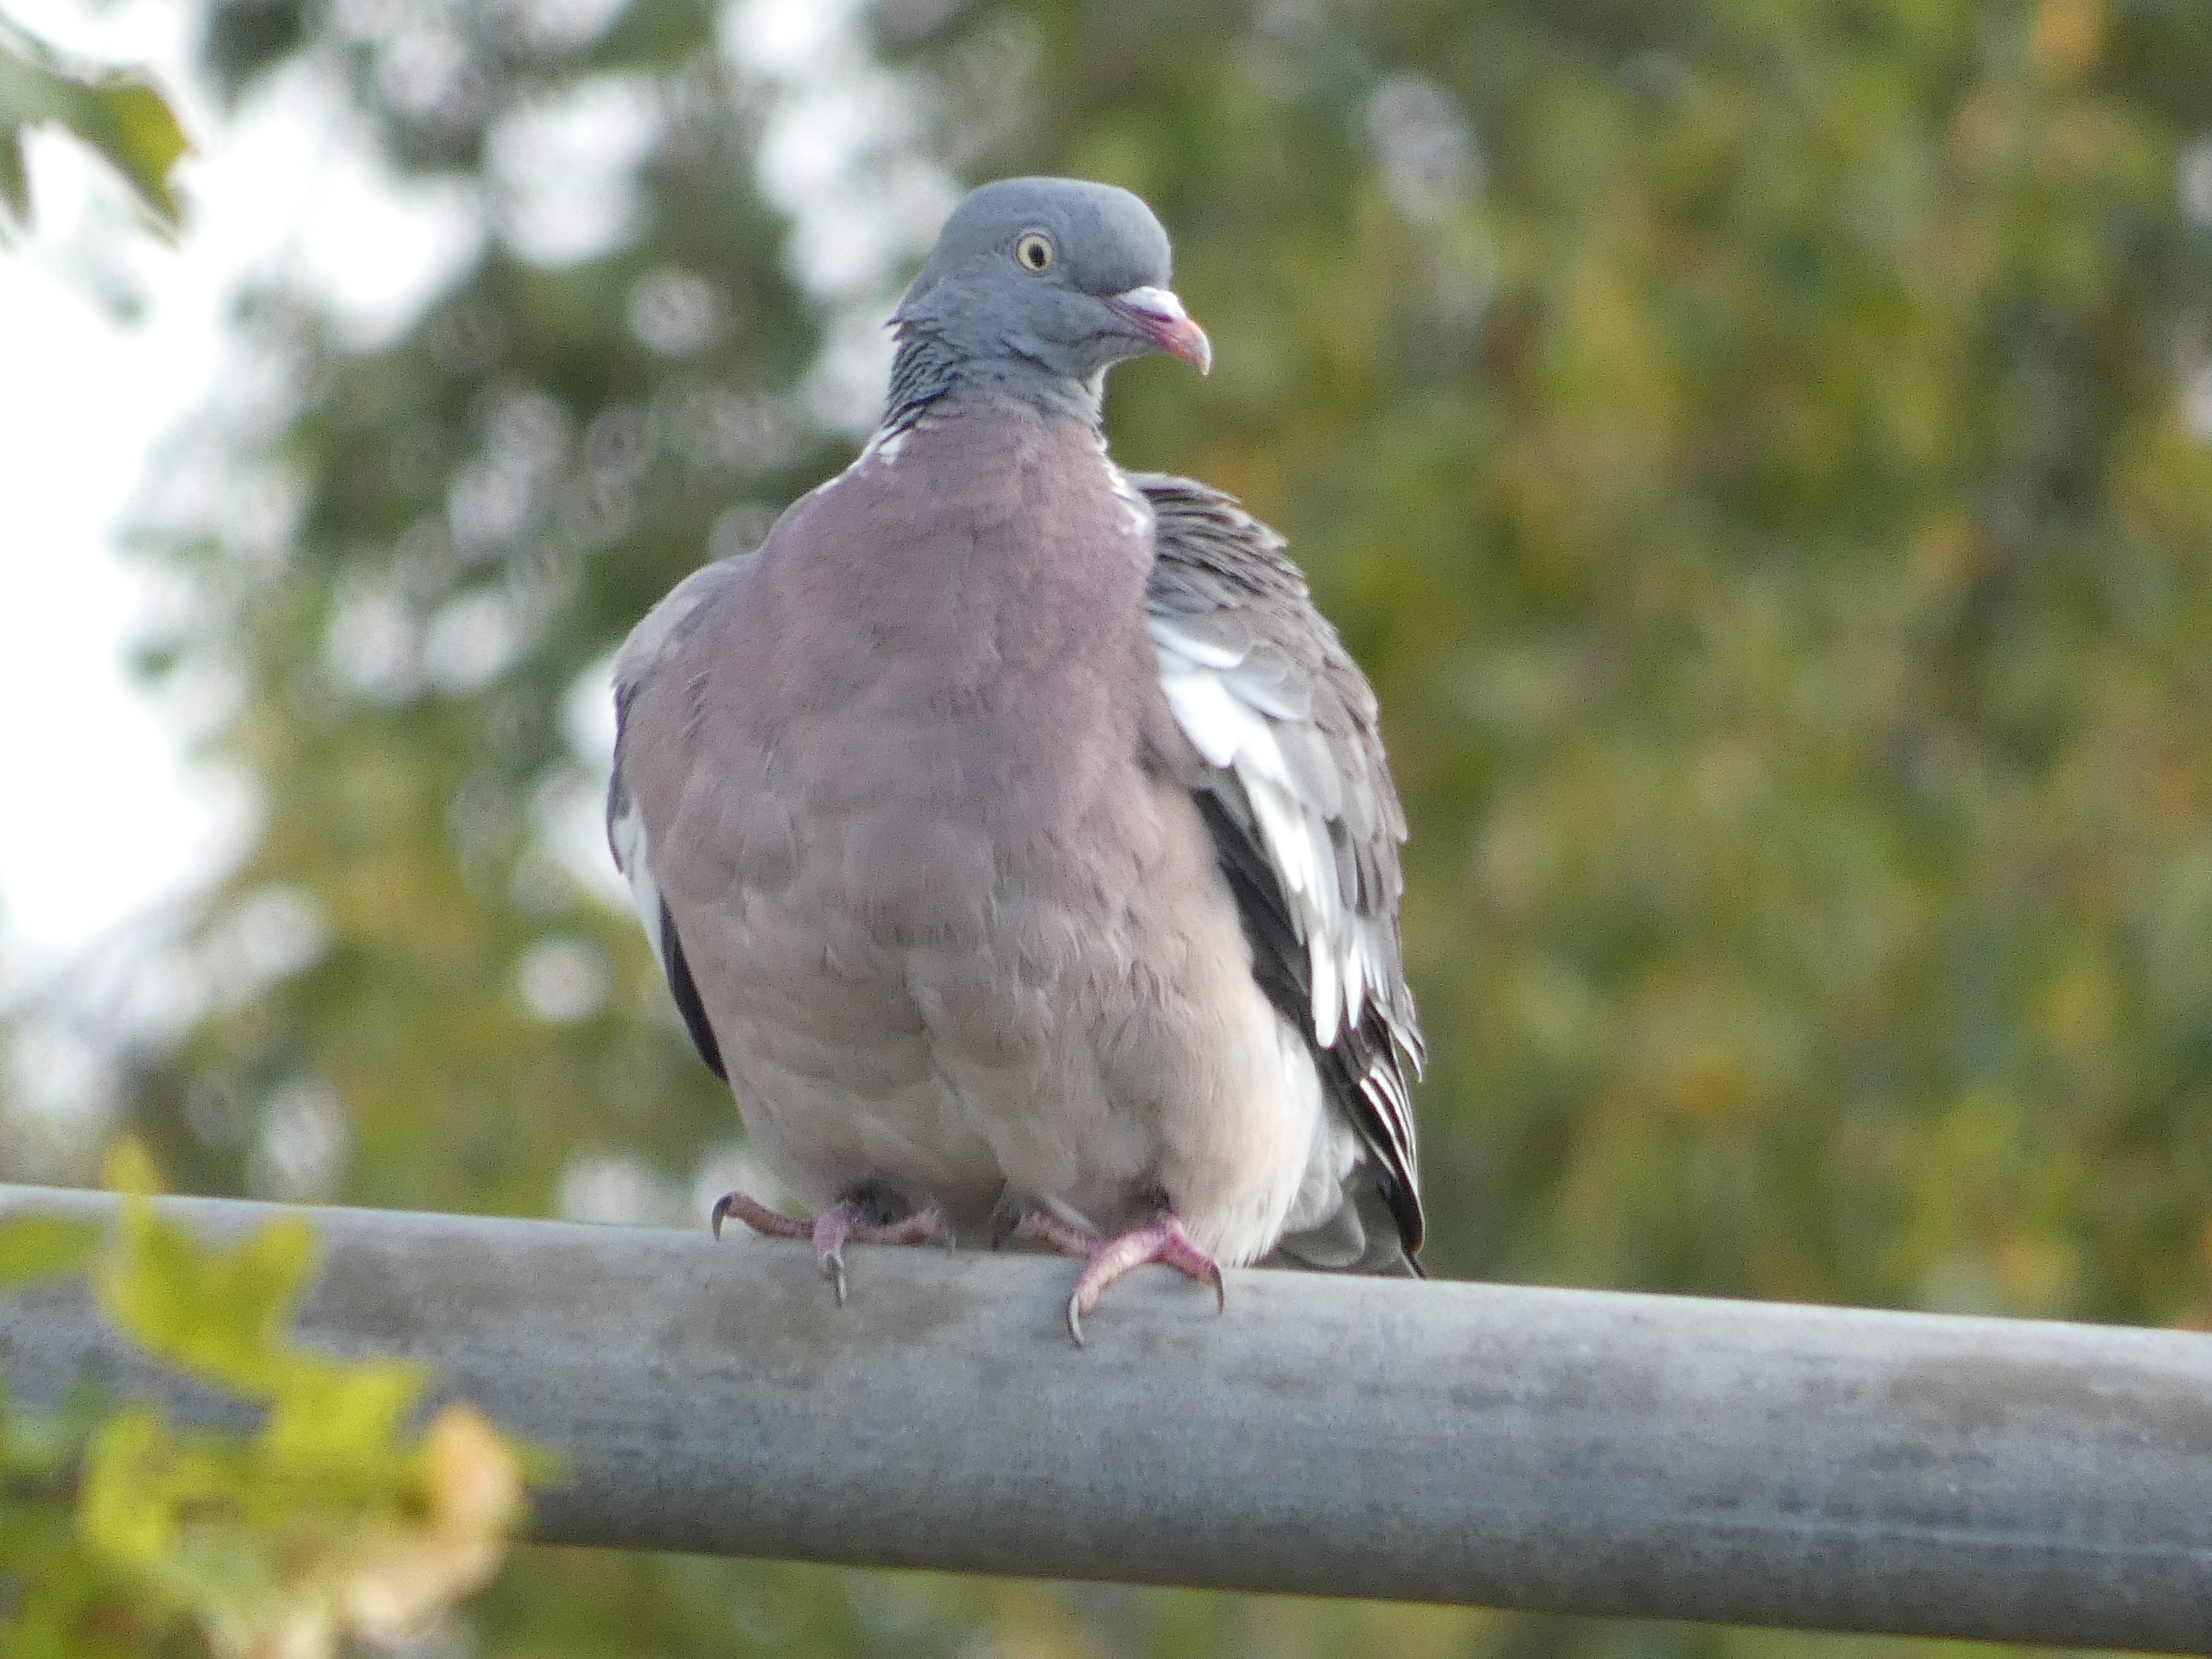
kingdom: Animalia
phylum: Chordata
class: Aves
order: Columbiformes
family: Columbidae
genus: Columba
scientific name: Columba palumbus
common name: Ringdue
